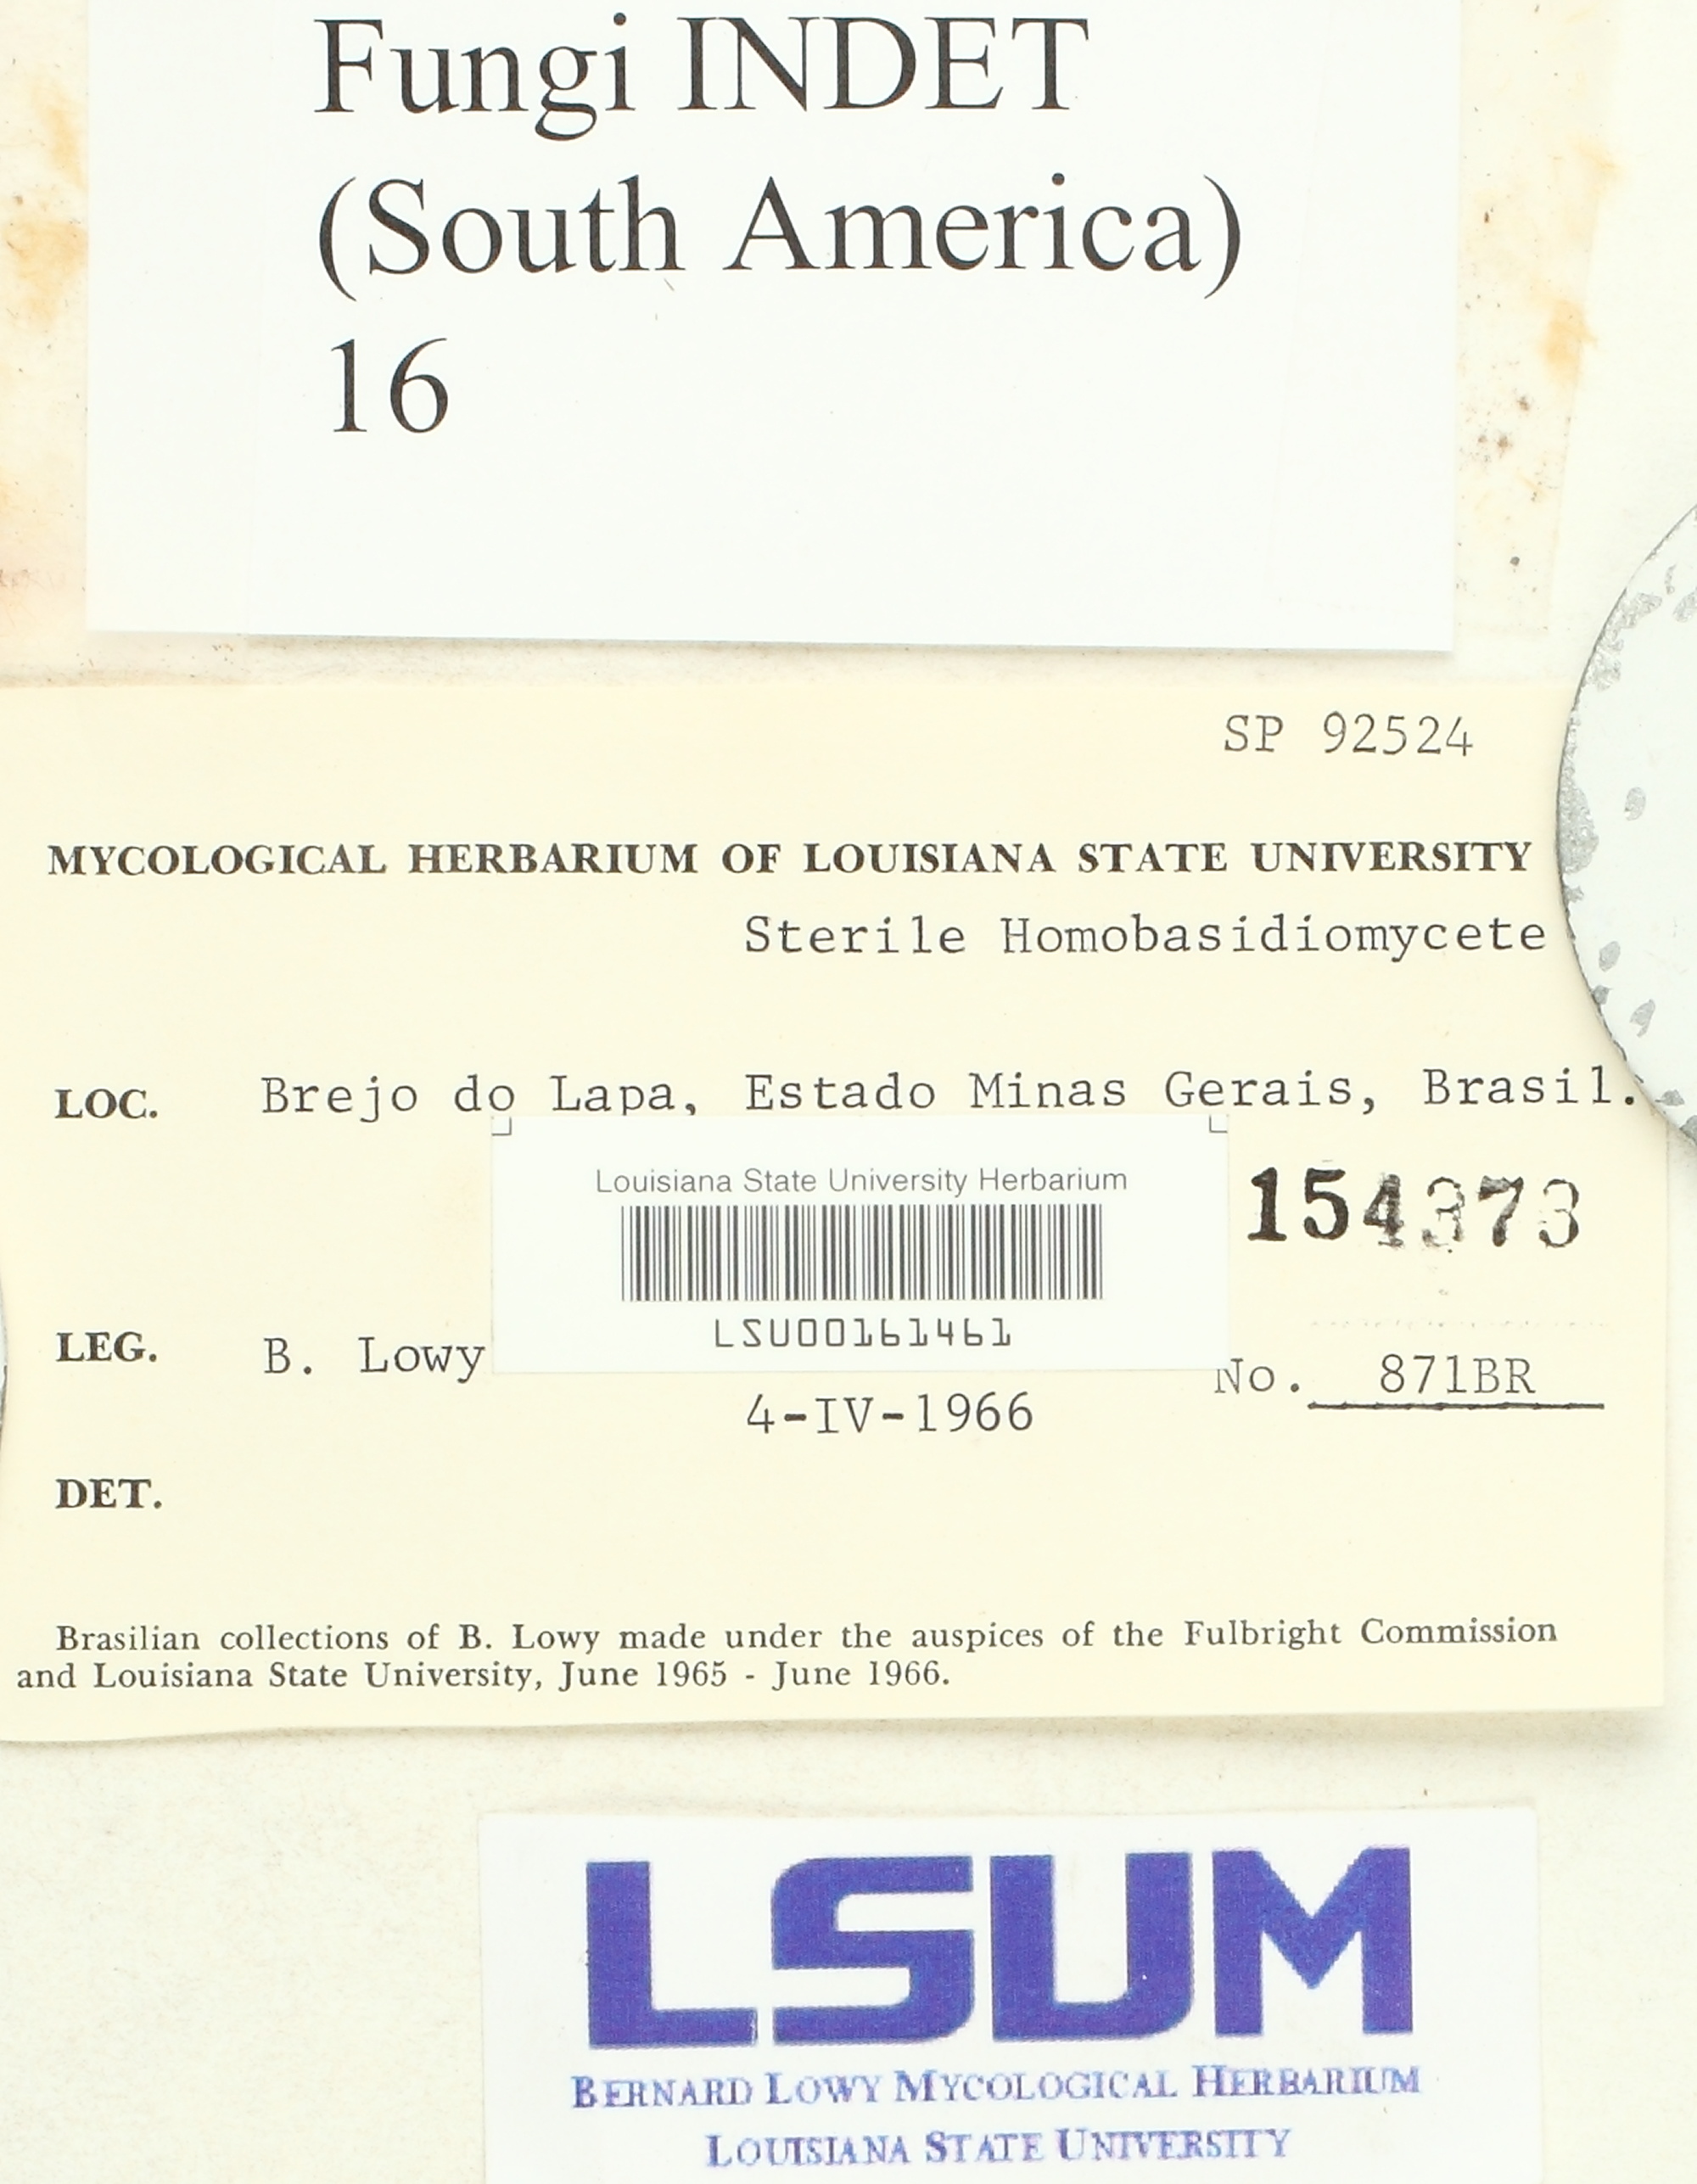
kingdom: Fungi
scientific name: Fungi
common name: Fungi
